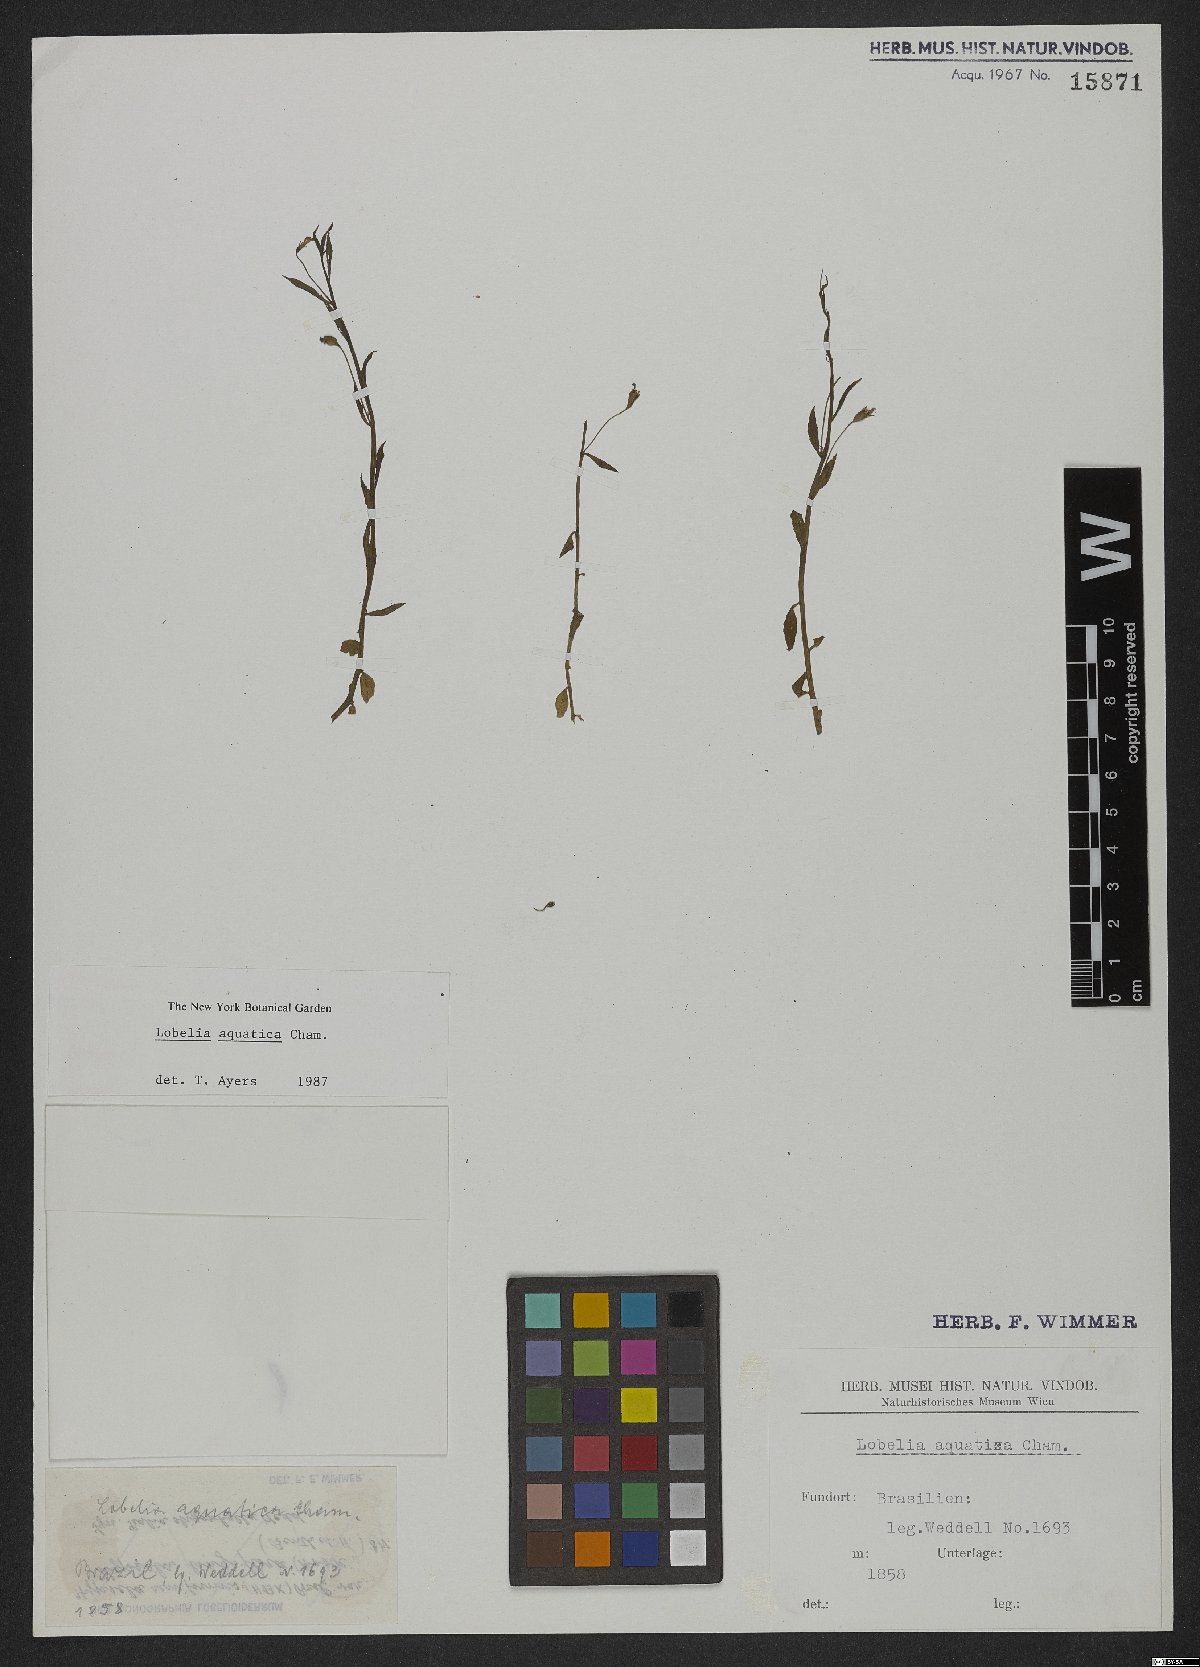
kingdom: Plantae
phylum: Tracheophyta
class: Magnoliopsida
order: Asterales
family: Campanulaceae
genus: Lobelia
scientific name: Lobelia aquatica
